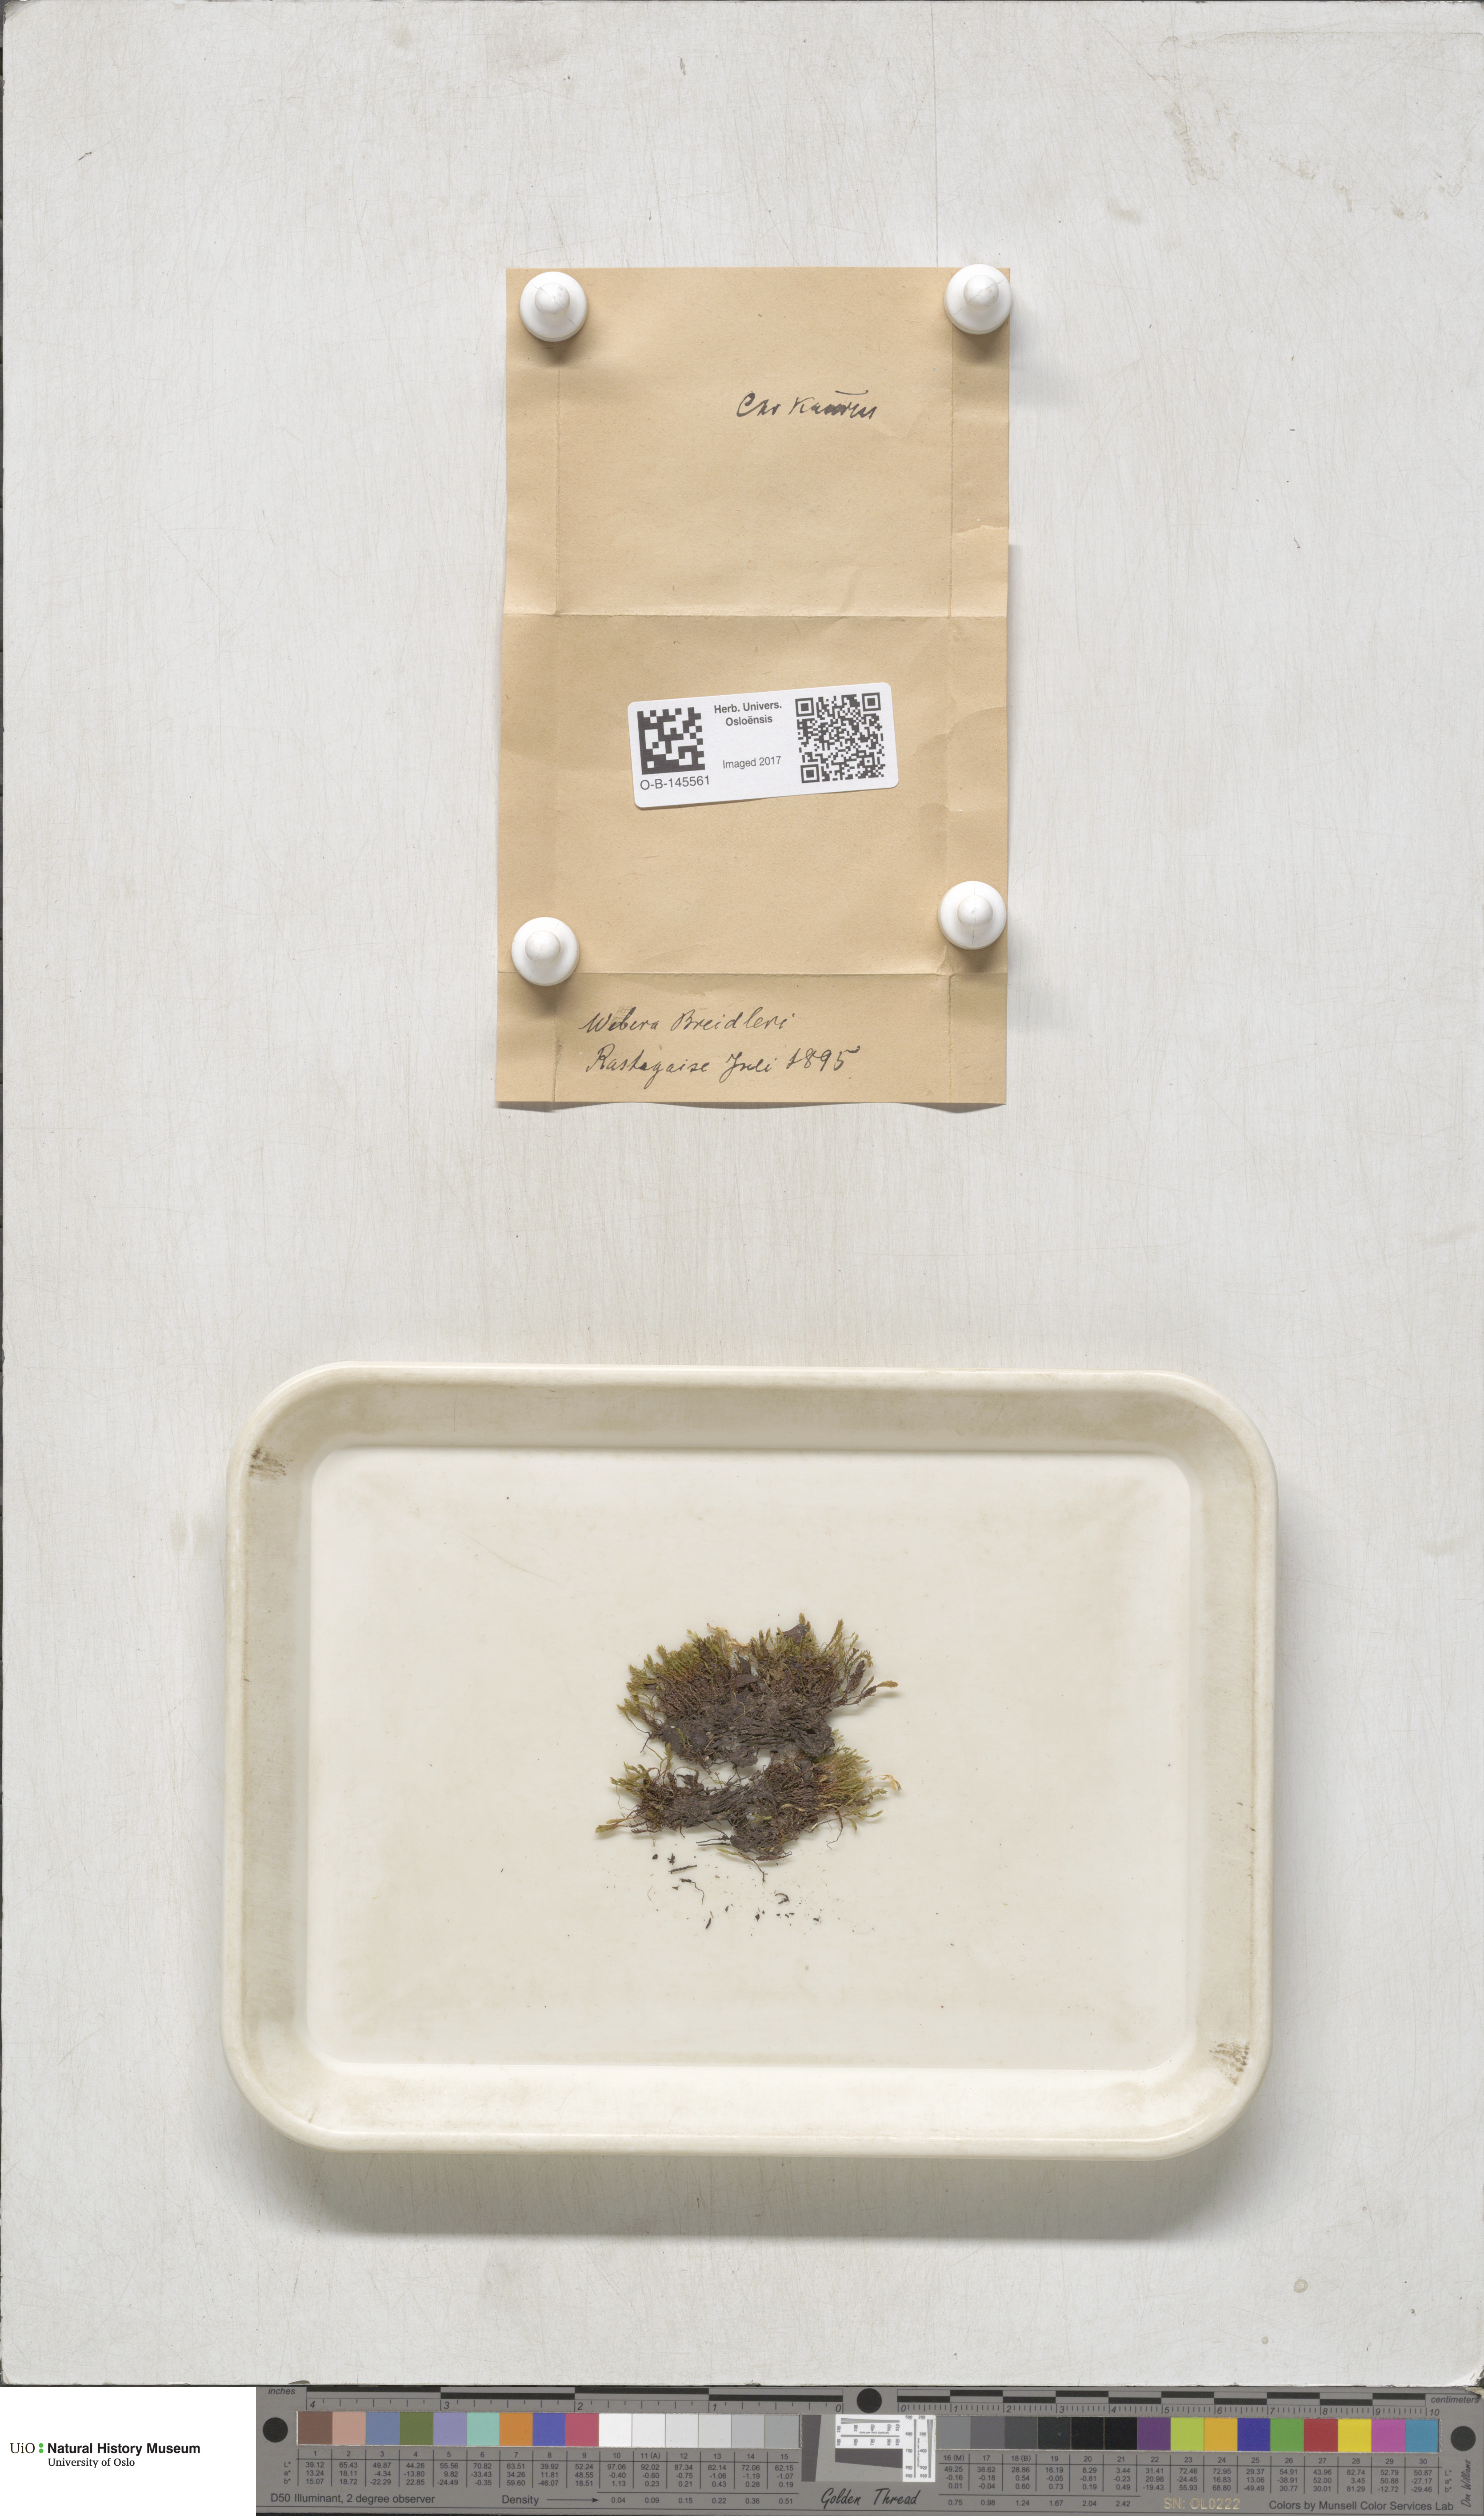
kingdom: Plantae
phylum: Bryophyta
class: Bryopsida
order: Bryales
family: Mniaceae
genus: Pohlia
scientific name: Pohlia ludwigii
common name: Ludwig's thread-moss
